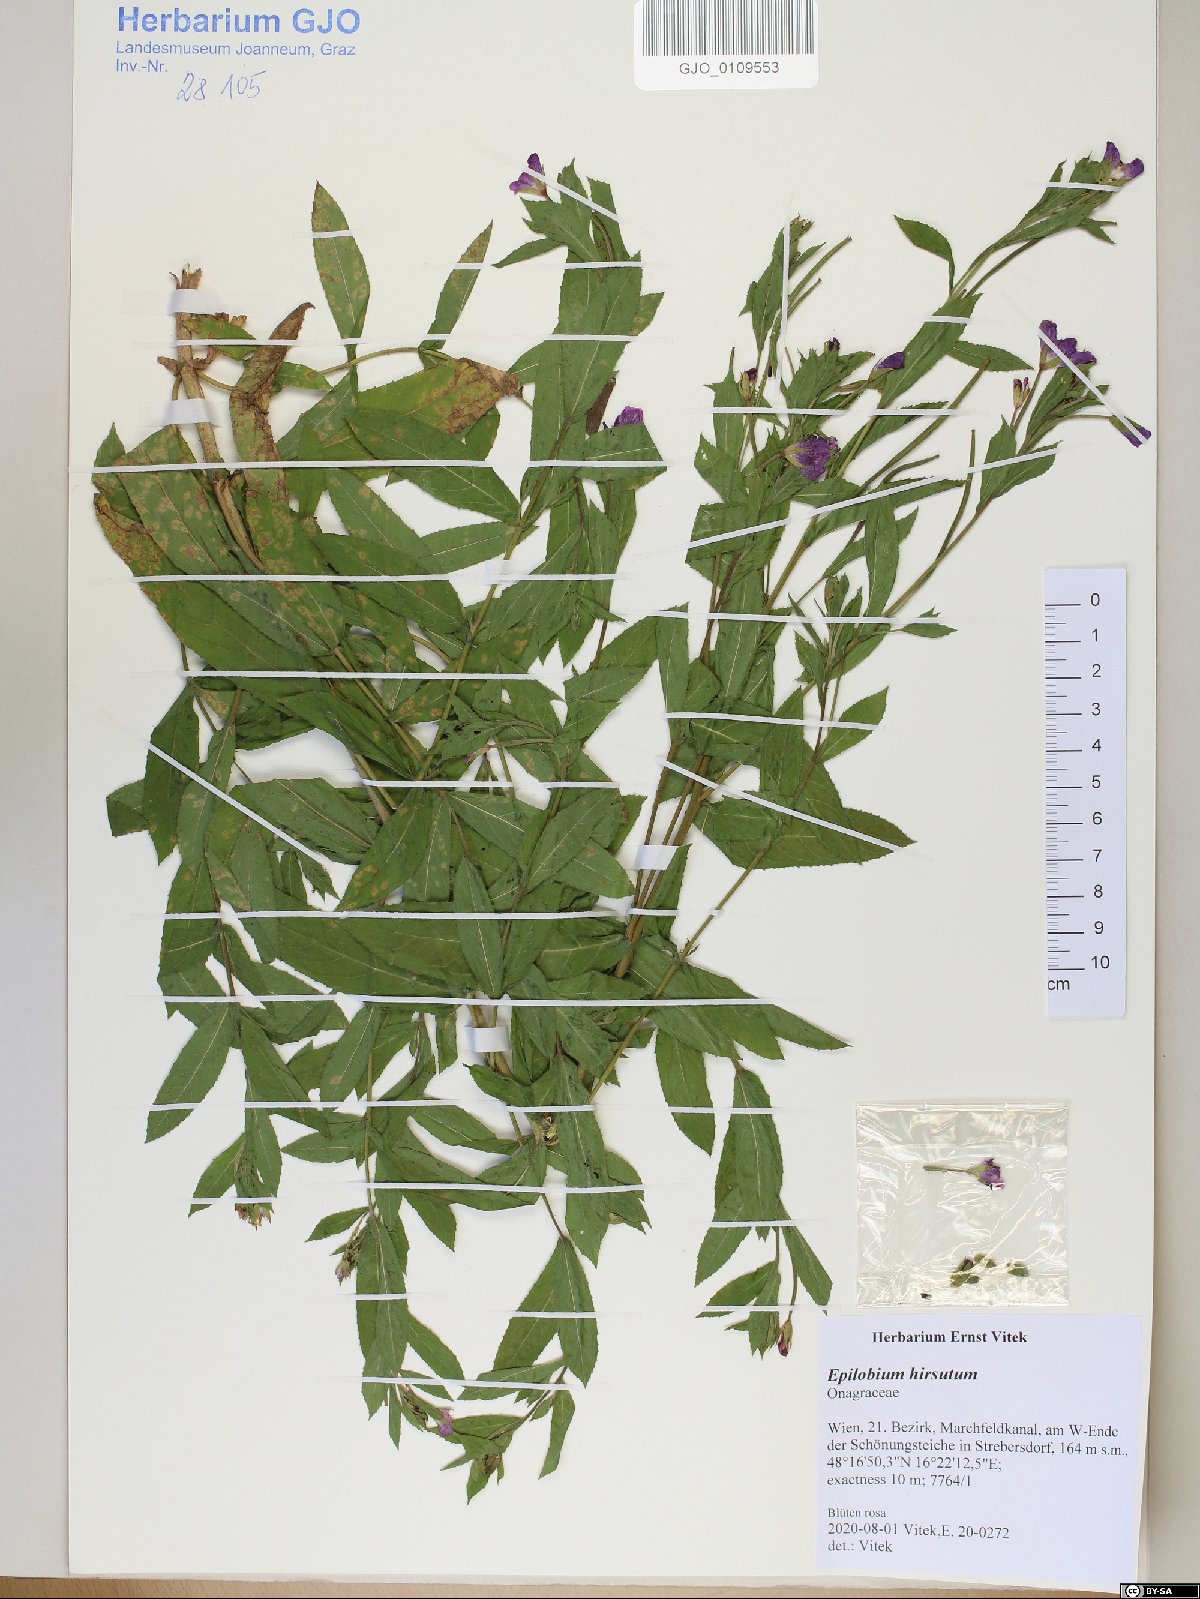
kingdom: Plantae
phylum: Tracheophyta
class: Magnoliopsida
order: Myrtales
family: Onagraceae
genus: Epilobium
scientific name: Epilobium hirsutum
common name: Great willowherb
